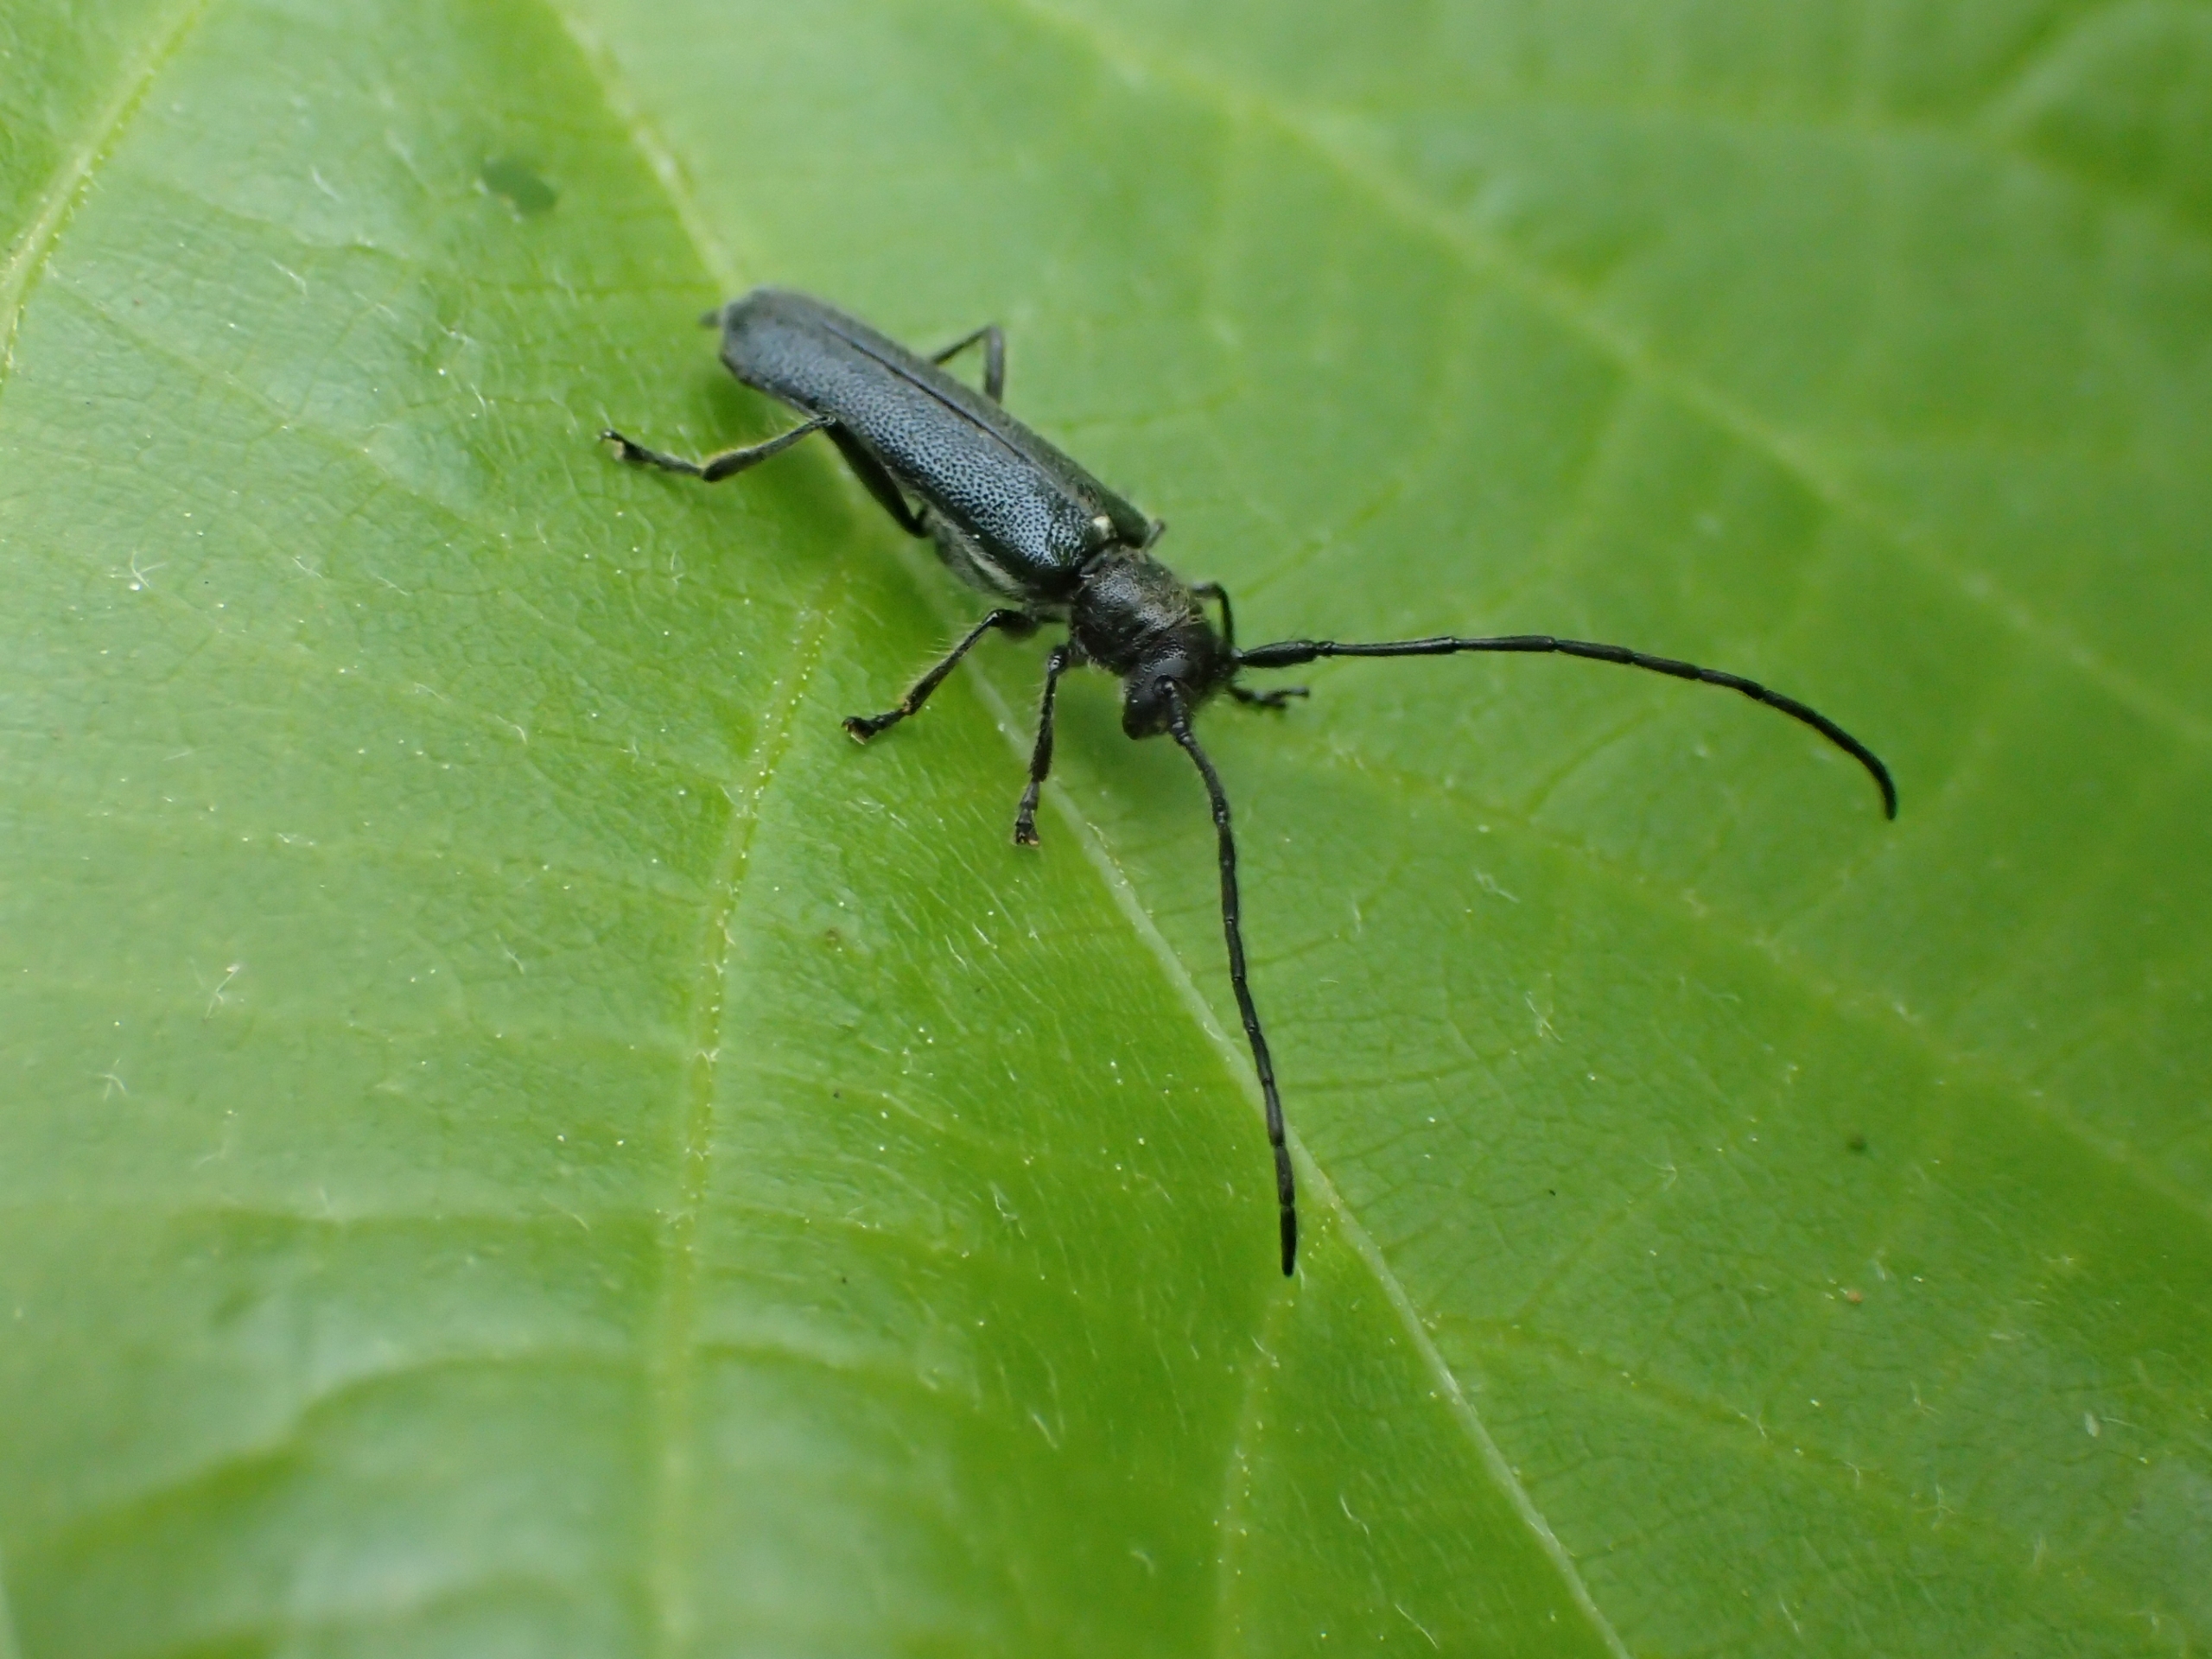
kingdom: Animalia
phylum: Arthropoda
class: Insecta
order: Coleoptera
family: Cerambycidae
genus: Stenostola
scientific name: Stenostola dubia
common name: Blank lindebuk
